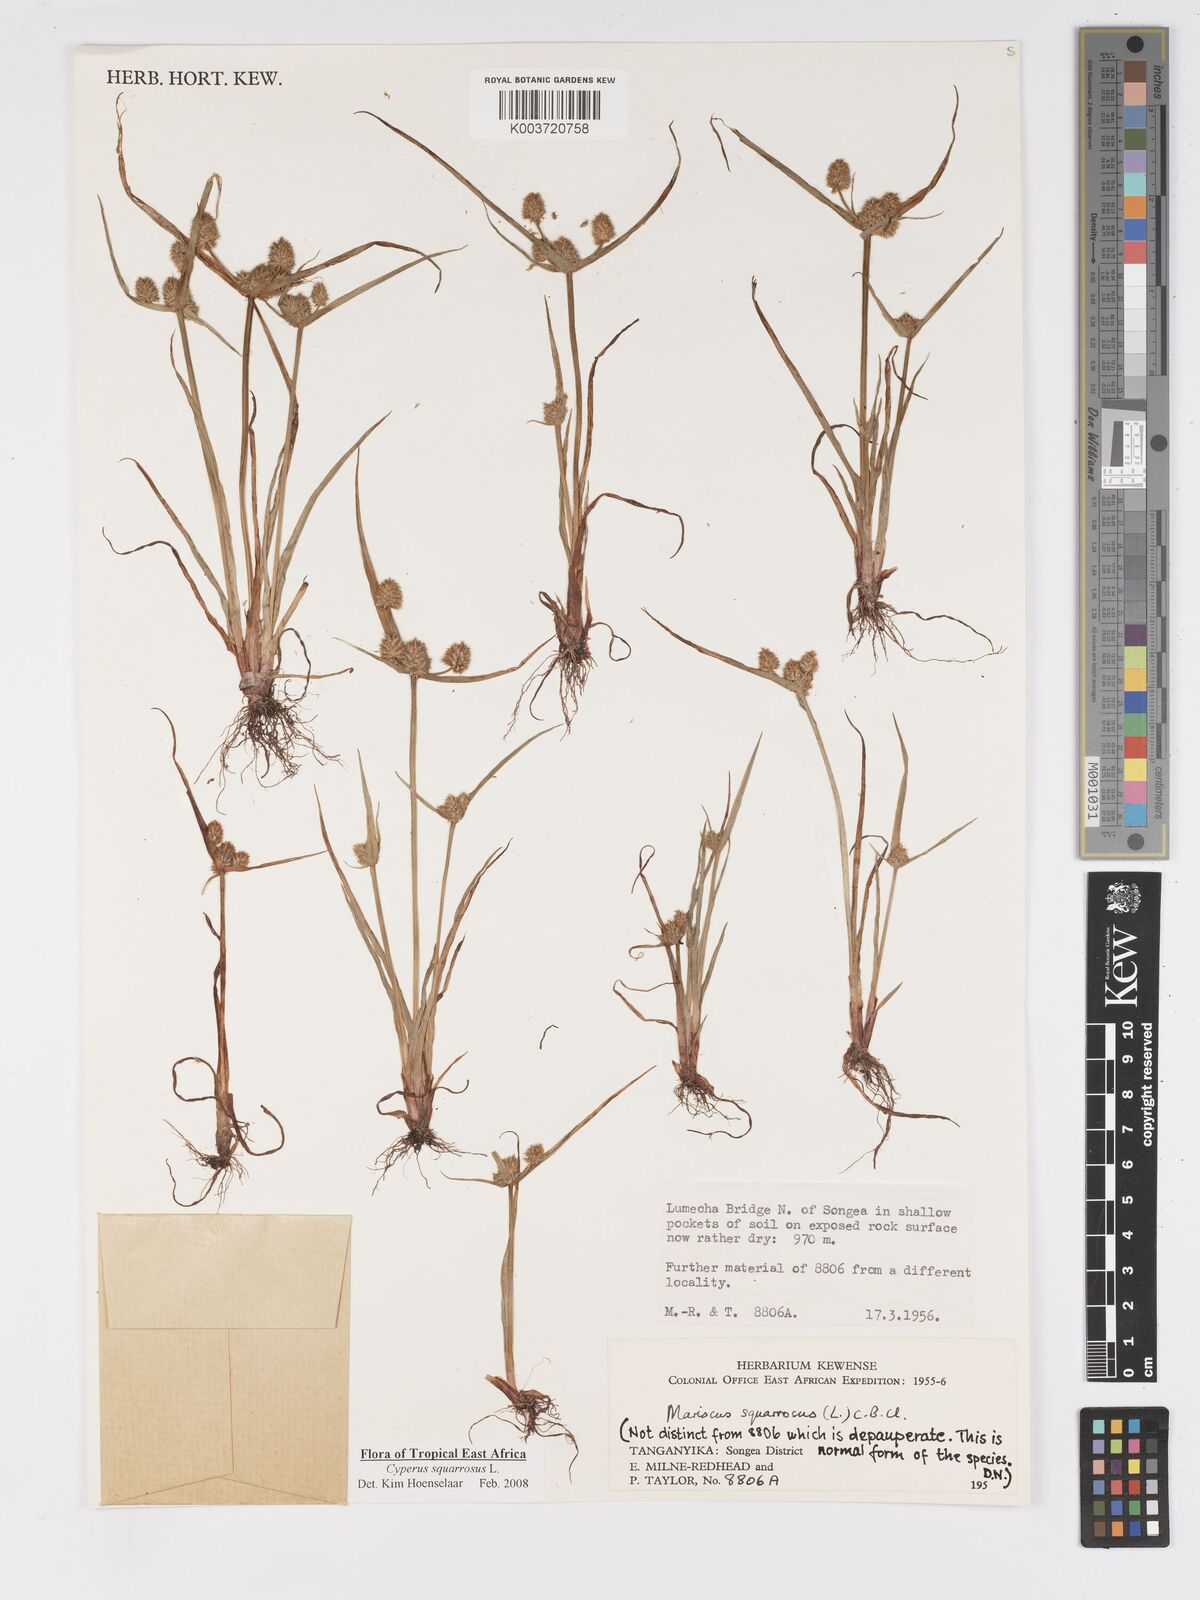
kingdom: Plantae
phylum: Tracheophyta
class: Liliopsida
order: Poales
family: Cyperaceae
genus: Cyperus
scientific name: Cyperus squarrosus
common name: Awned cyperus
